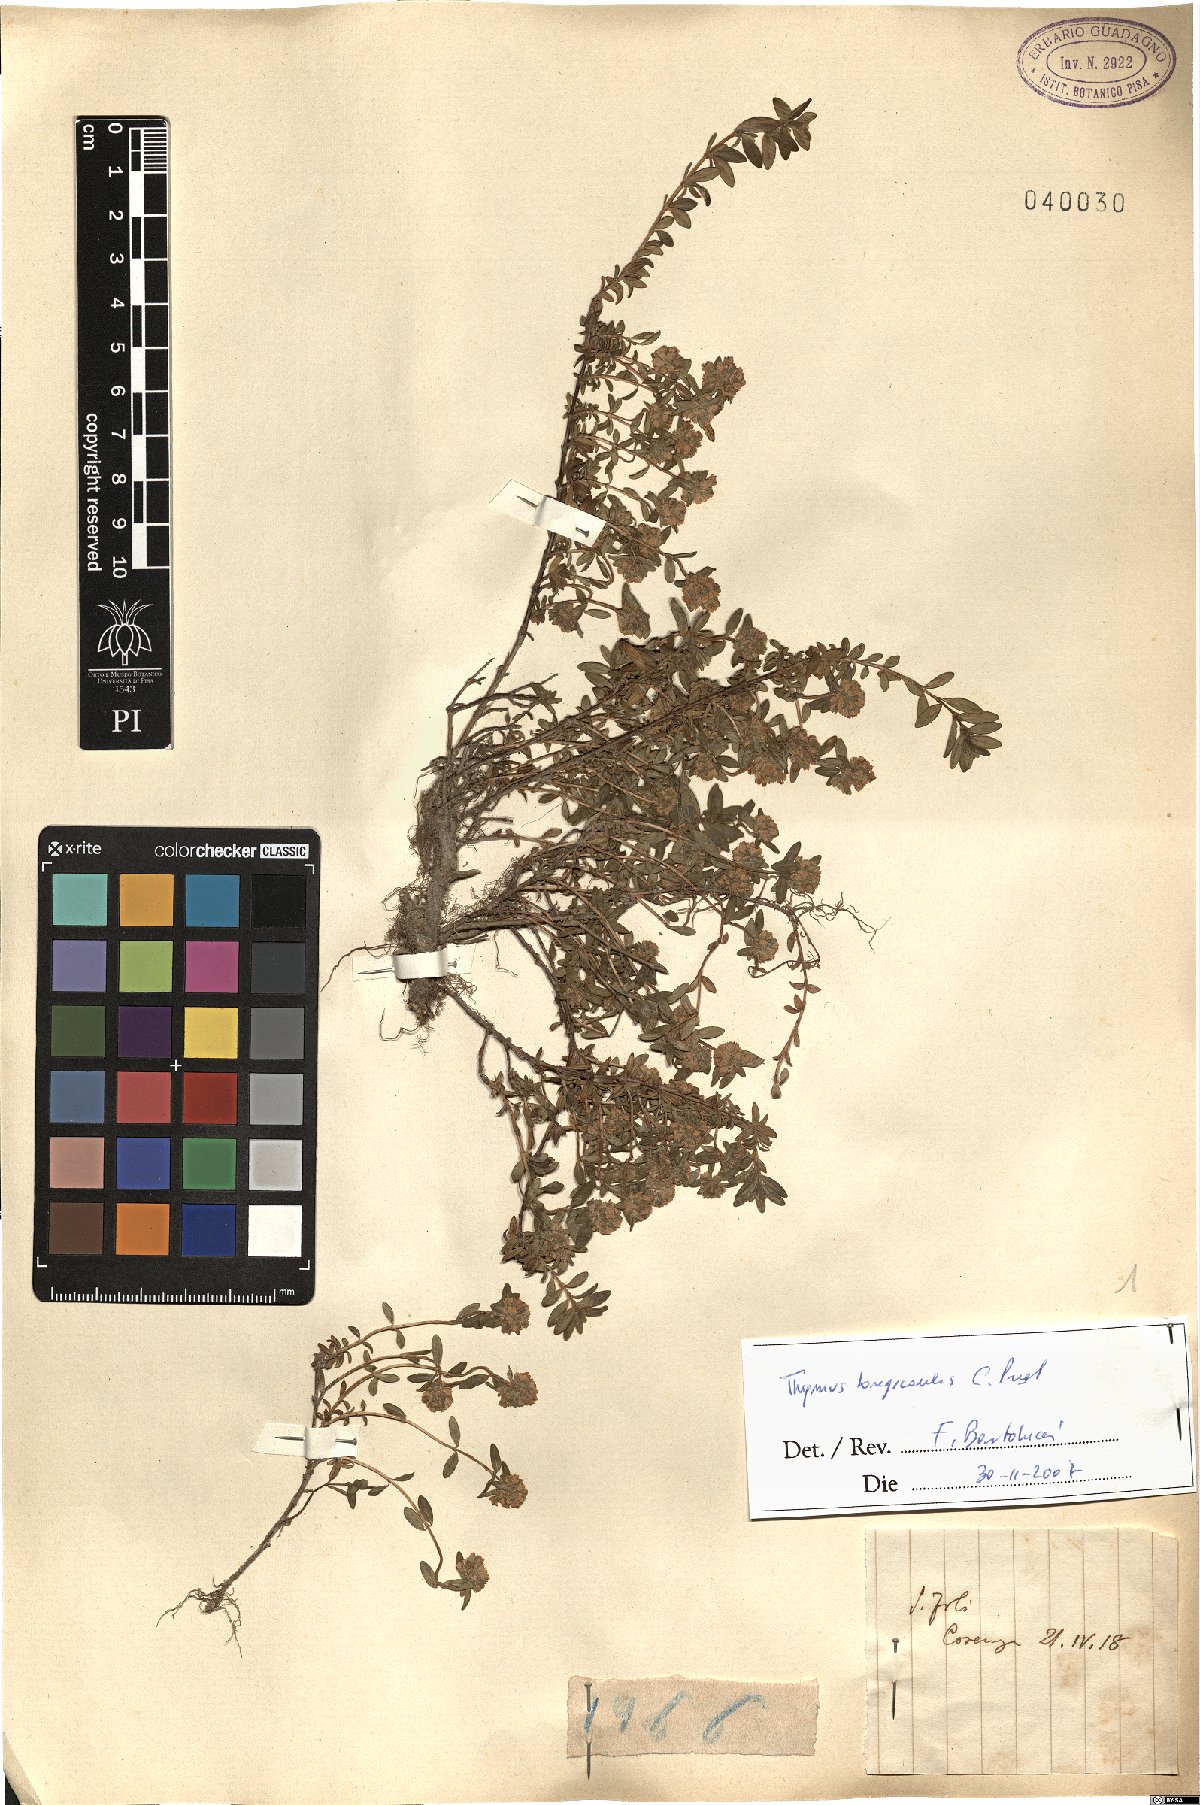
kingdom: Plantae
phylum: Tracheophyta
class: Magnoliopsida
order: Lamiales
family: Lamiaceae
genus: Thymus
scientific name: Thymus longicaulis
